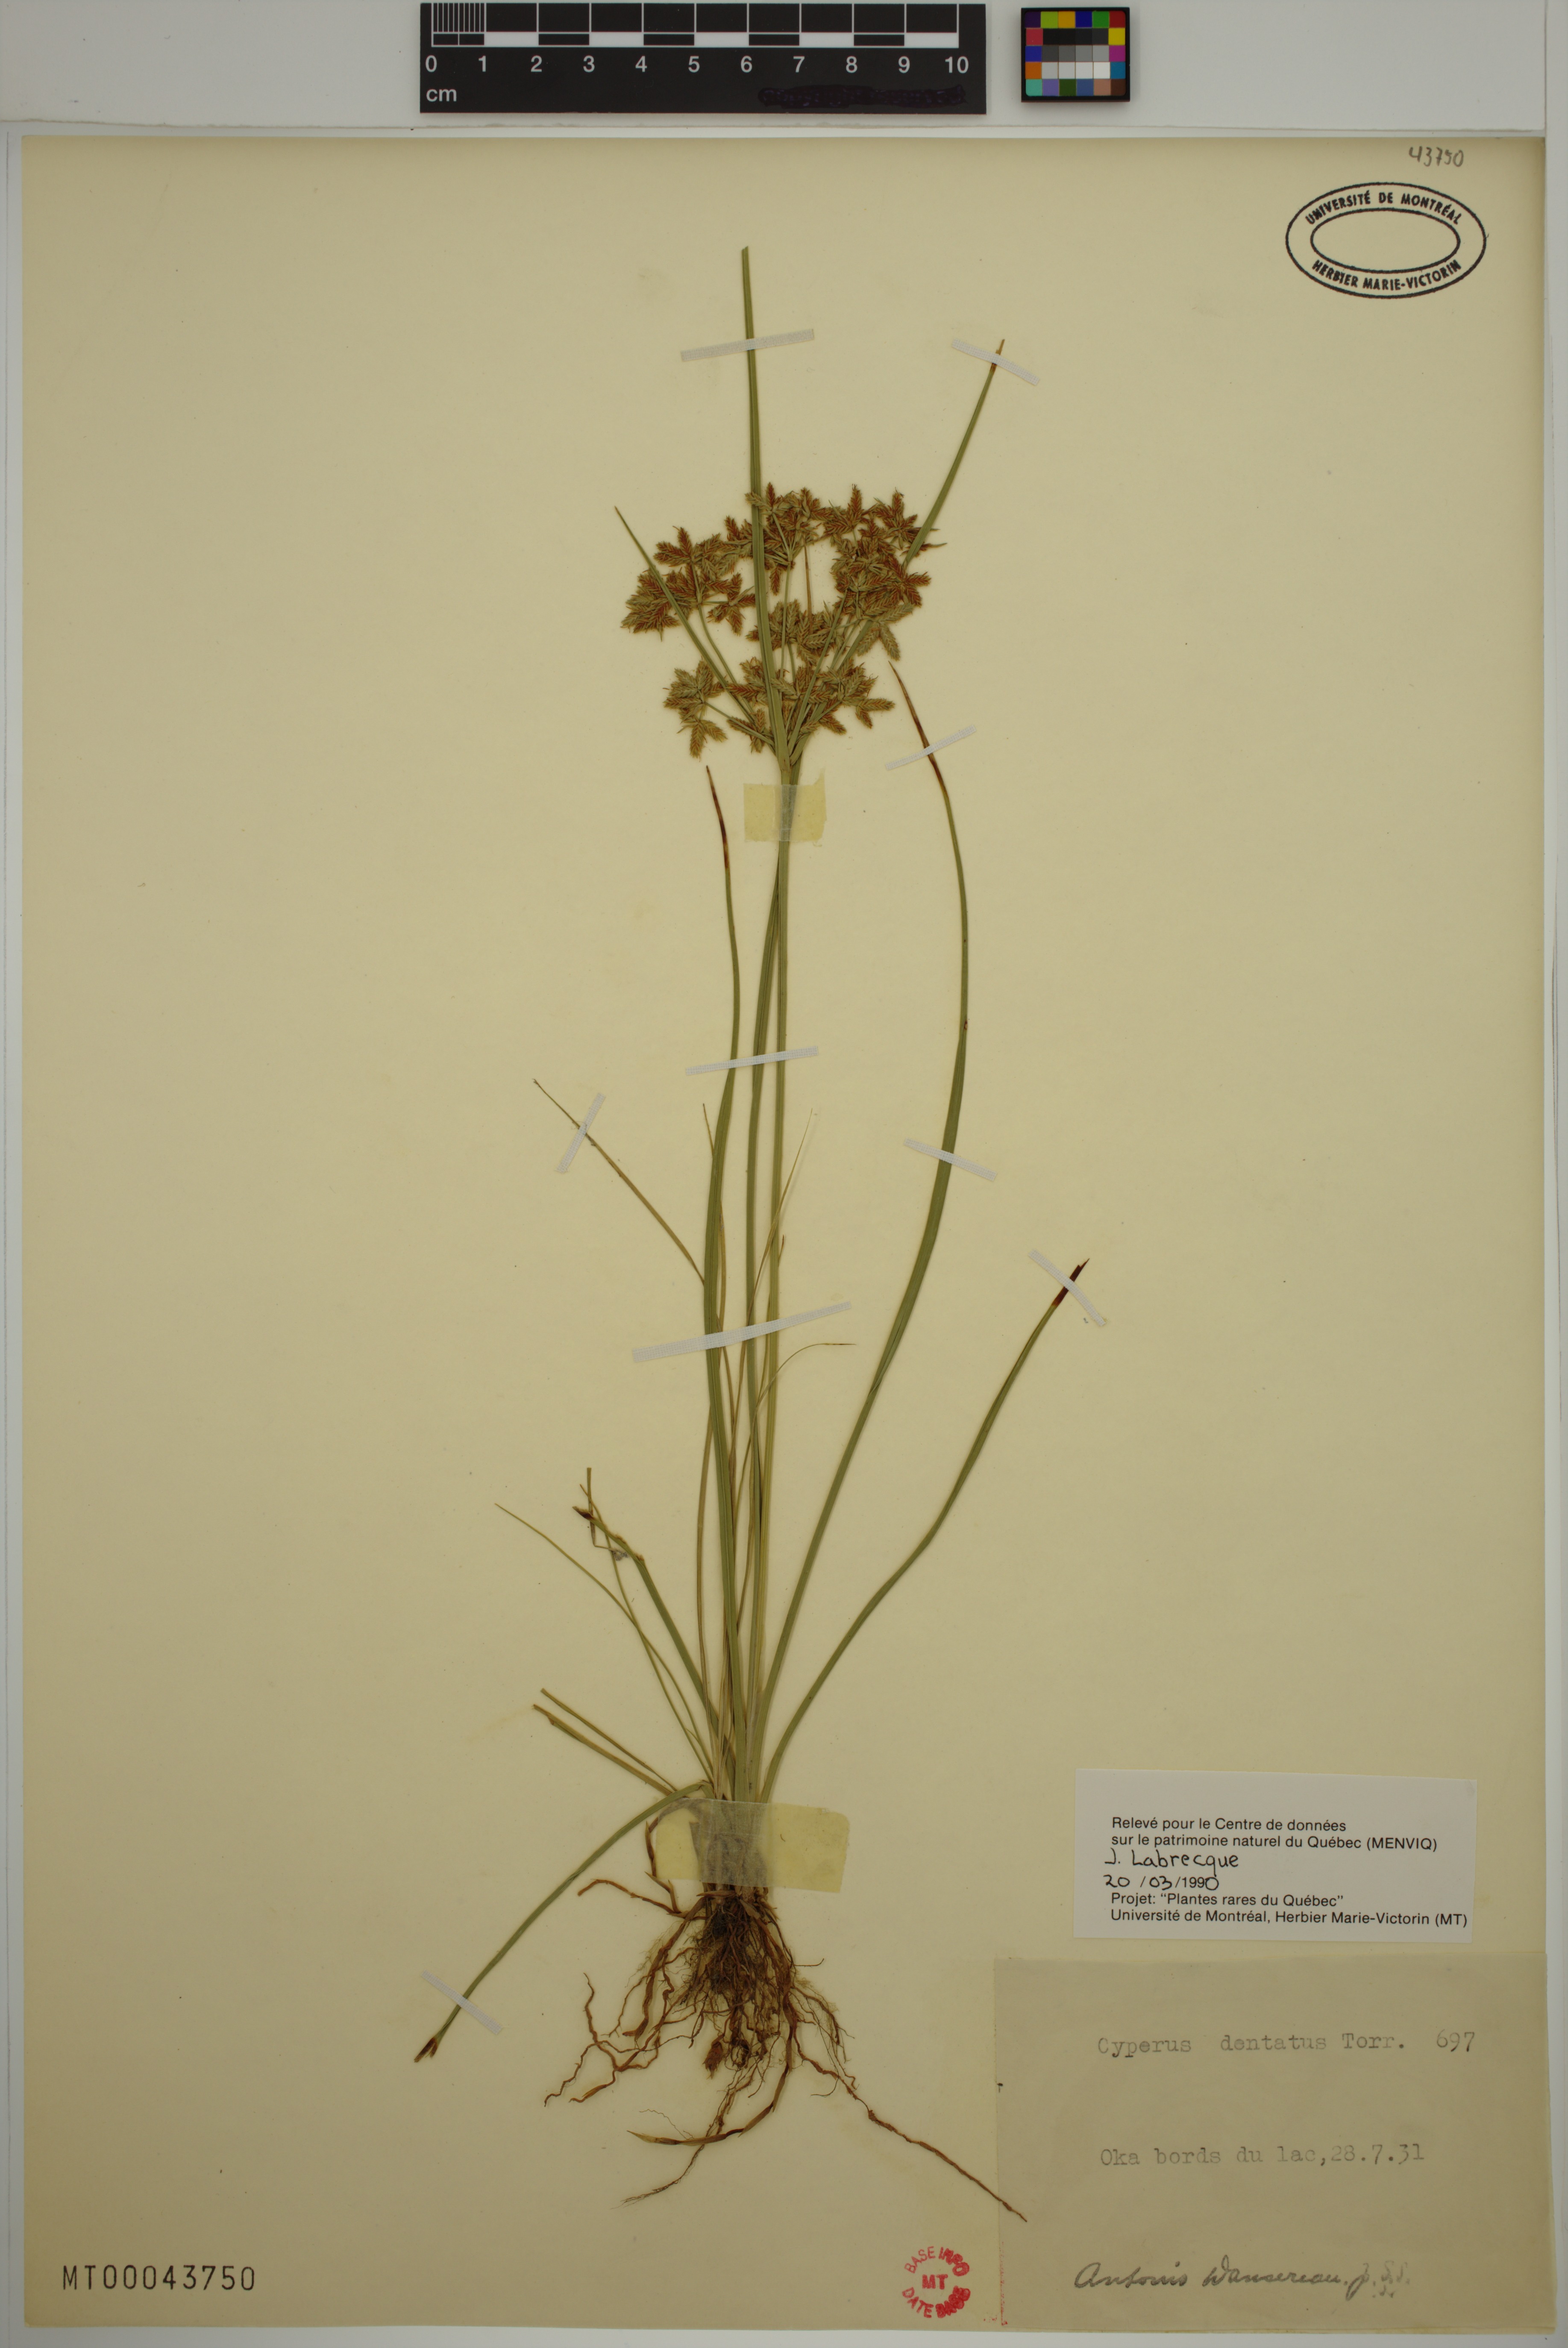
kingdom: Plantae
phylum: Tracheophyta
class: Liliopsida
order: Poales
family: Cyperaceae
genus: Cyperus
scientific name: Cyperus dentatus
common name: Dentate umbrella sedge
